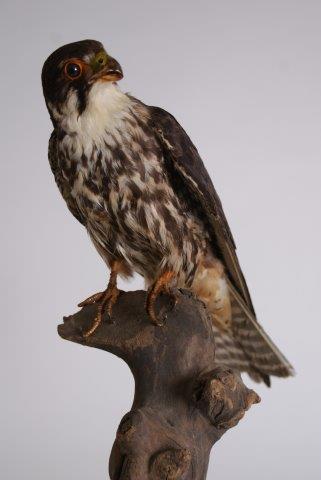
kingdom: Animalia
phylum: Chordata
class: Aves
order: Falconiformes
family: Falconidae
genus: Falco
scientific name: Falco subbuteo
